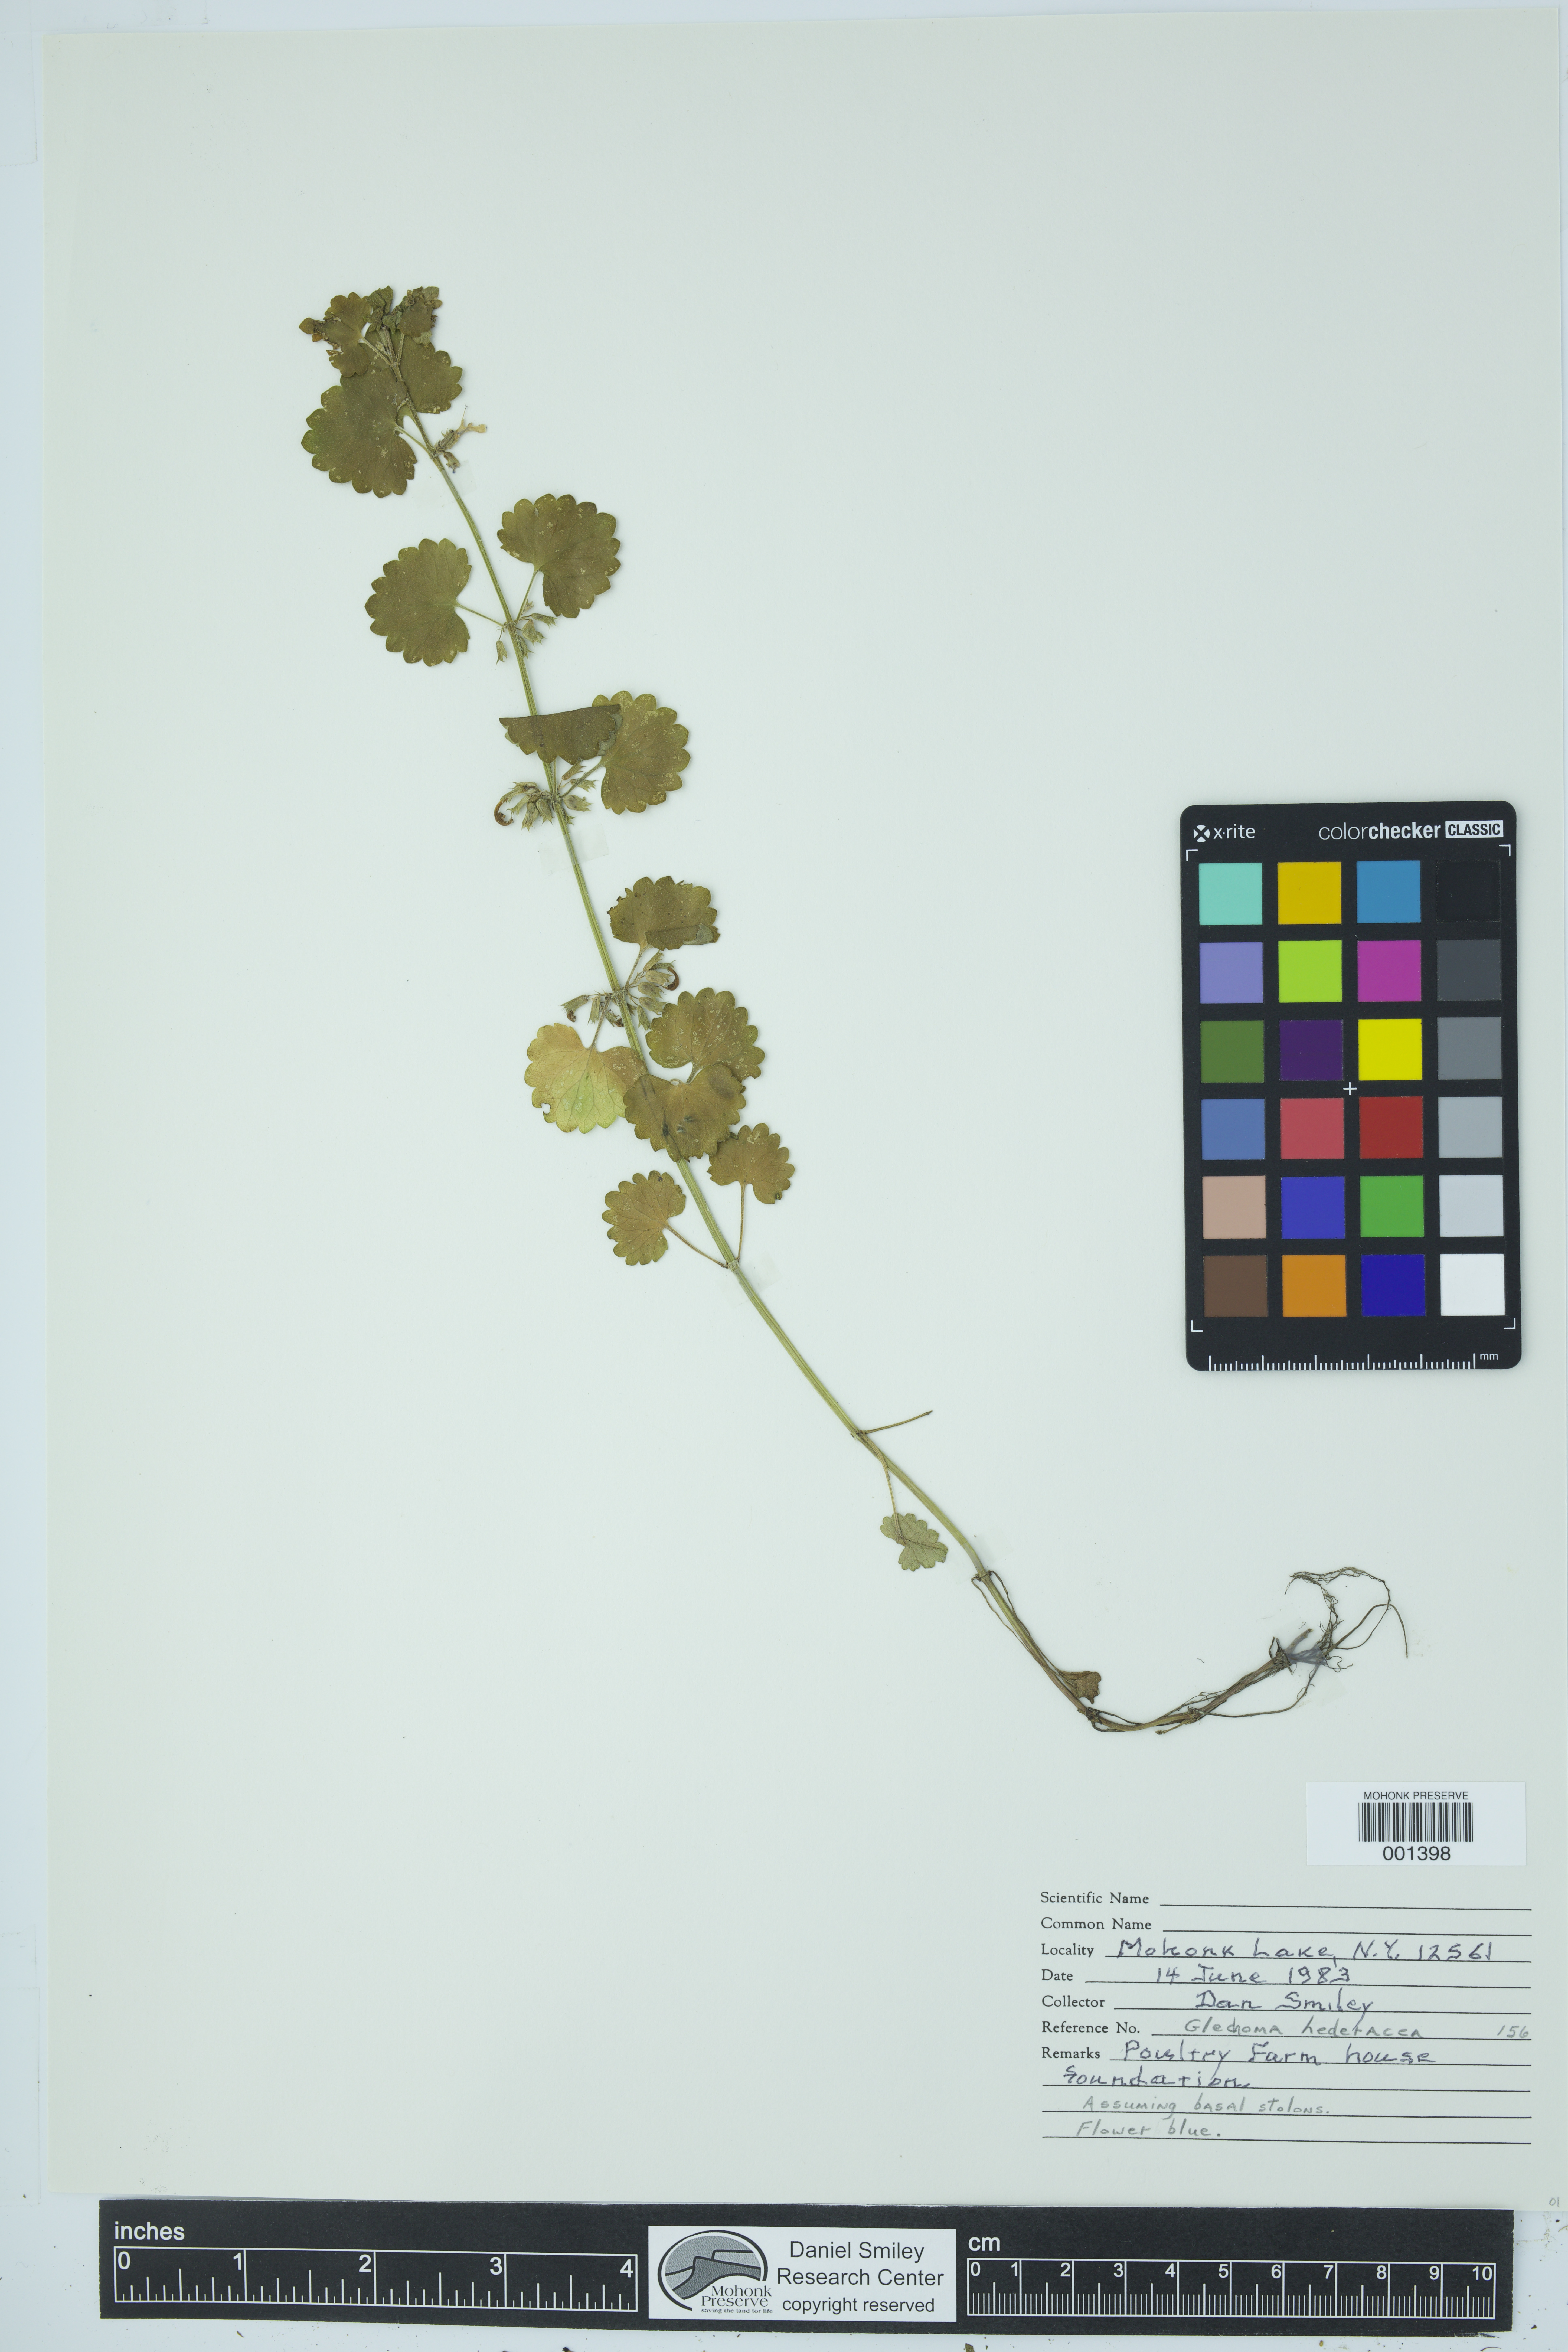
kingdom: Plantae
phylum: Tracheophyta
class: Magnoliopsida
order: Lamiales
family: Lamiaceae
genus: Glechoma
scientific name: Glechoma hederacea
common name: Ground ivy
